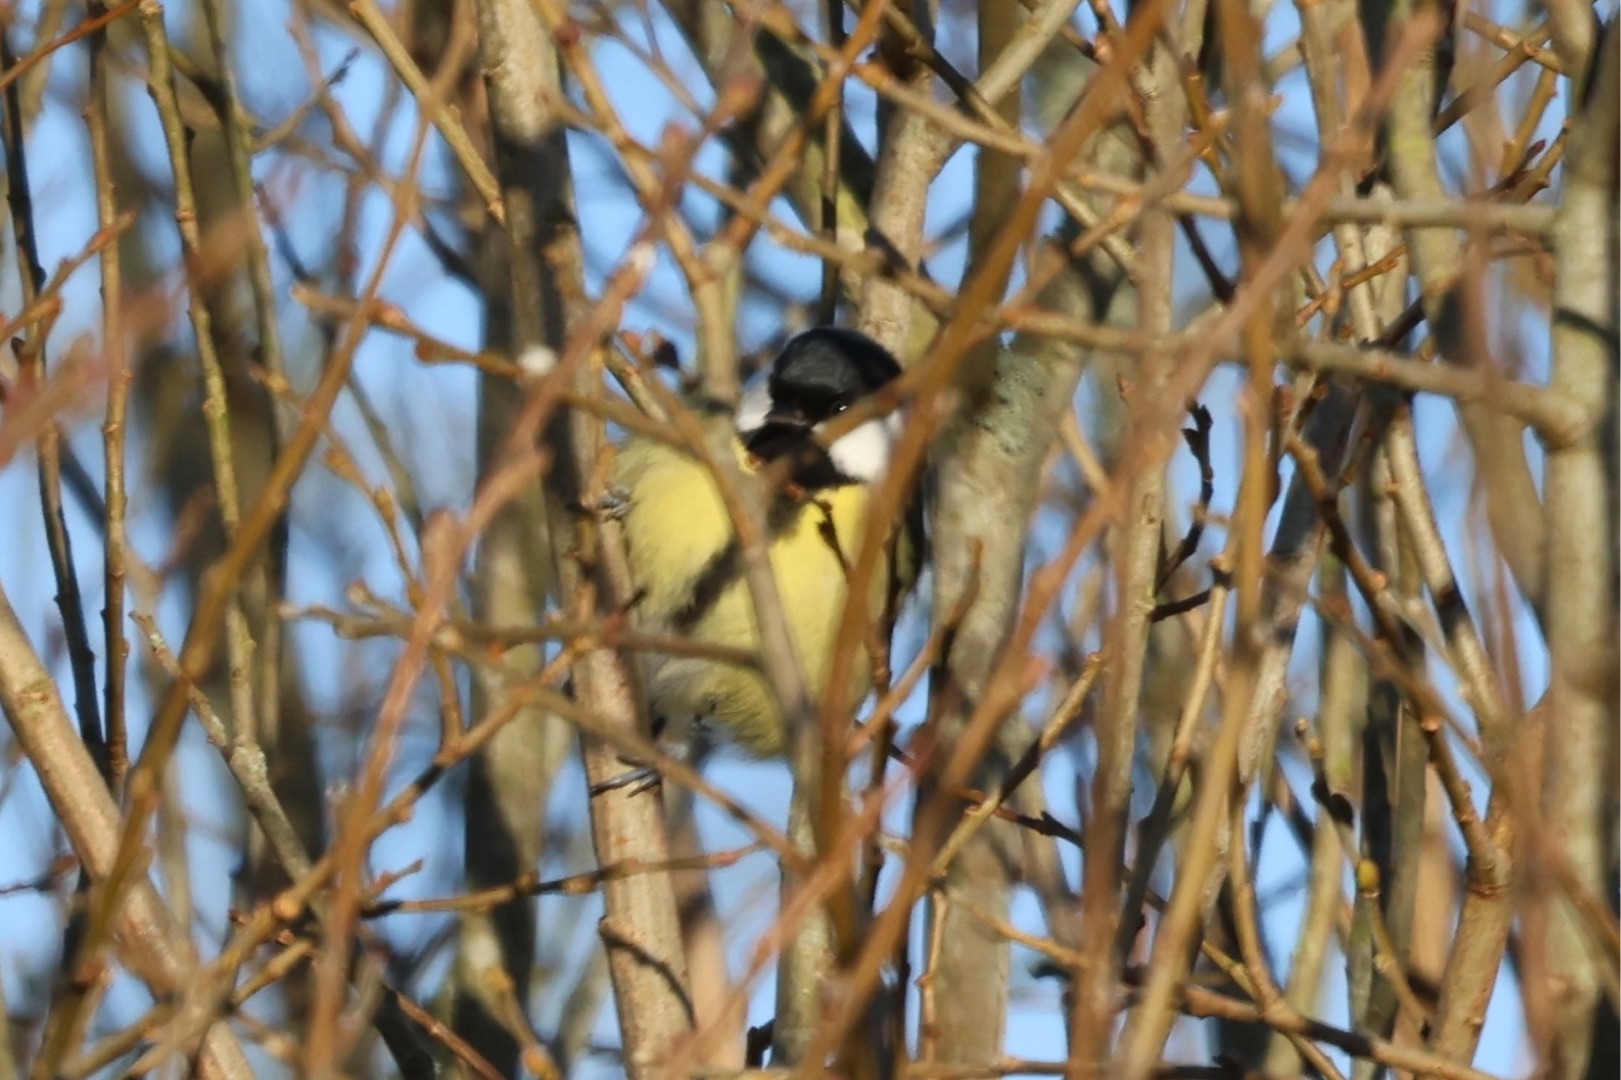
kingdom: Animalia
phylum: Chordata
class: Aves
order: Passeriformes
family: Paridae
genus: Parus
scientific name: Parus major
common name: Musvit
